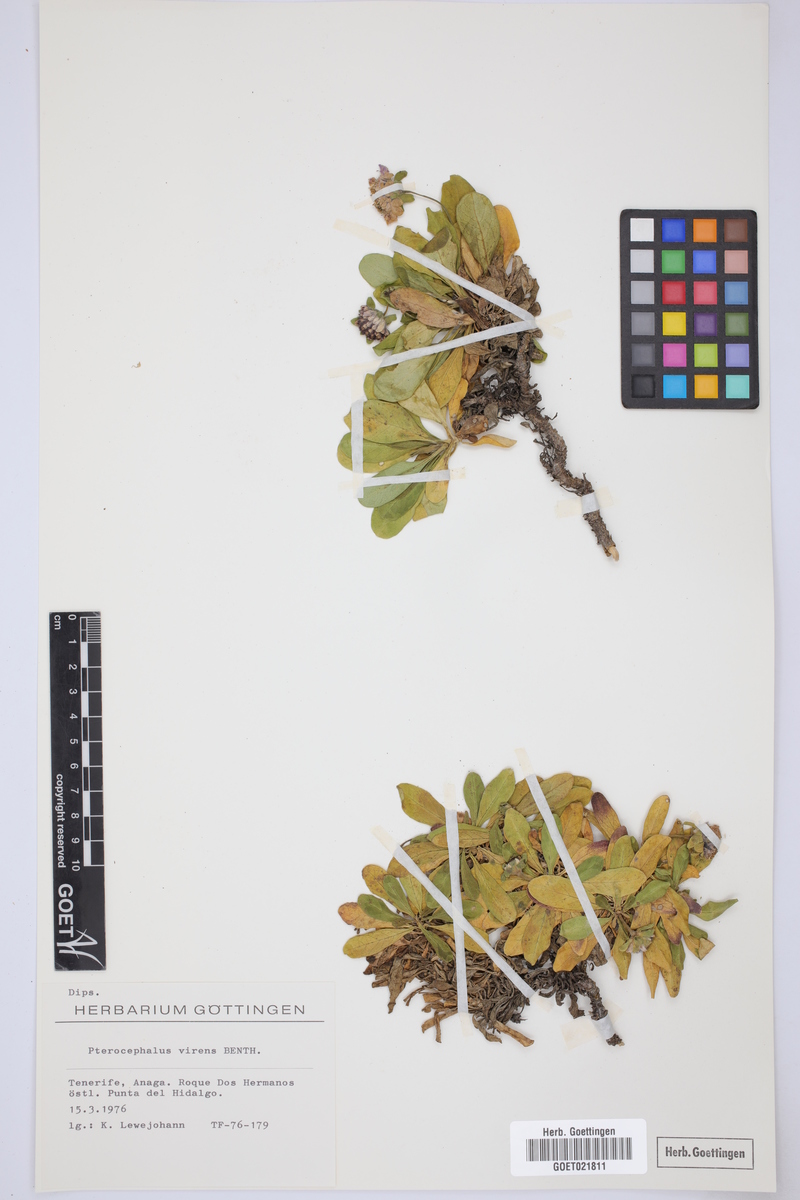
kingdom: Plantae
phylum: Tracheophyta
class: Magnoliopsida
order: Dipsacales
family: Caprifoliaceae
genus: Pterocephalus
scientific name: Pterocephalus virens
